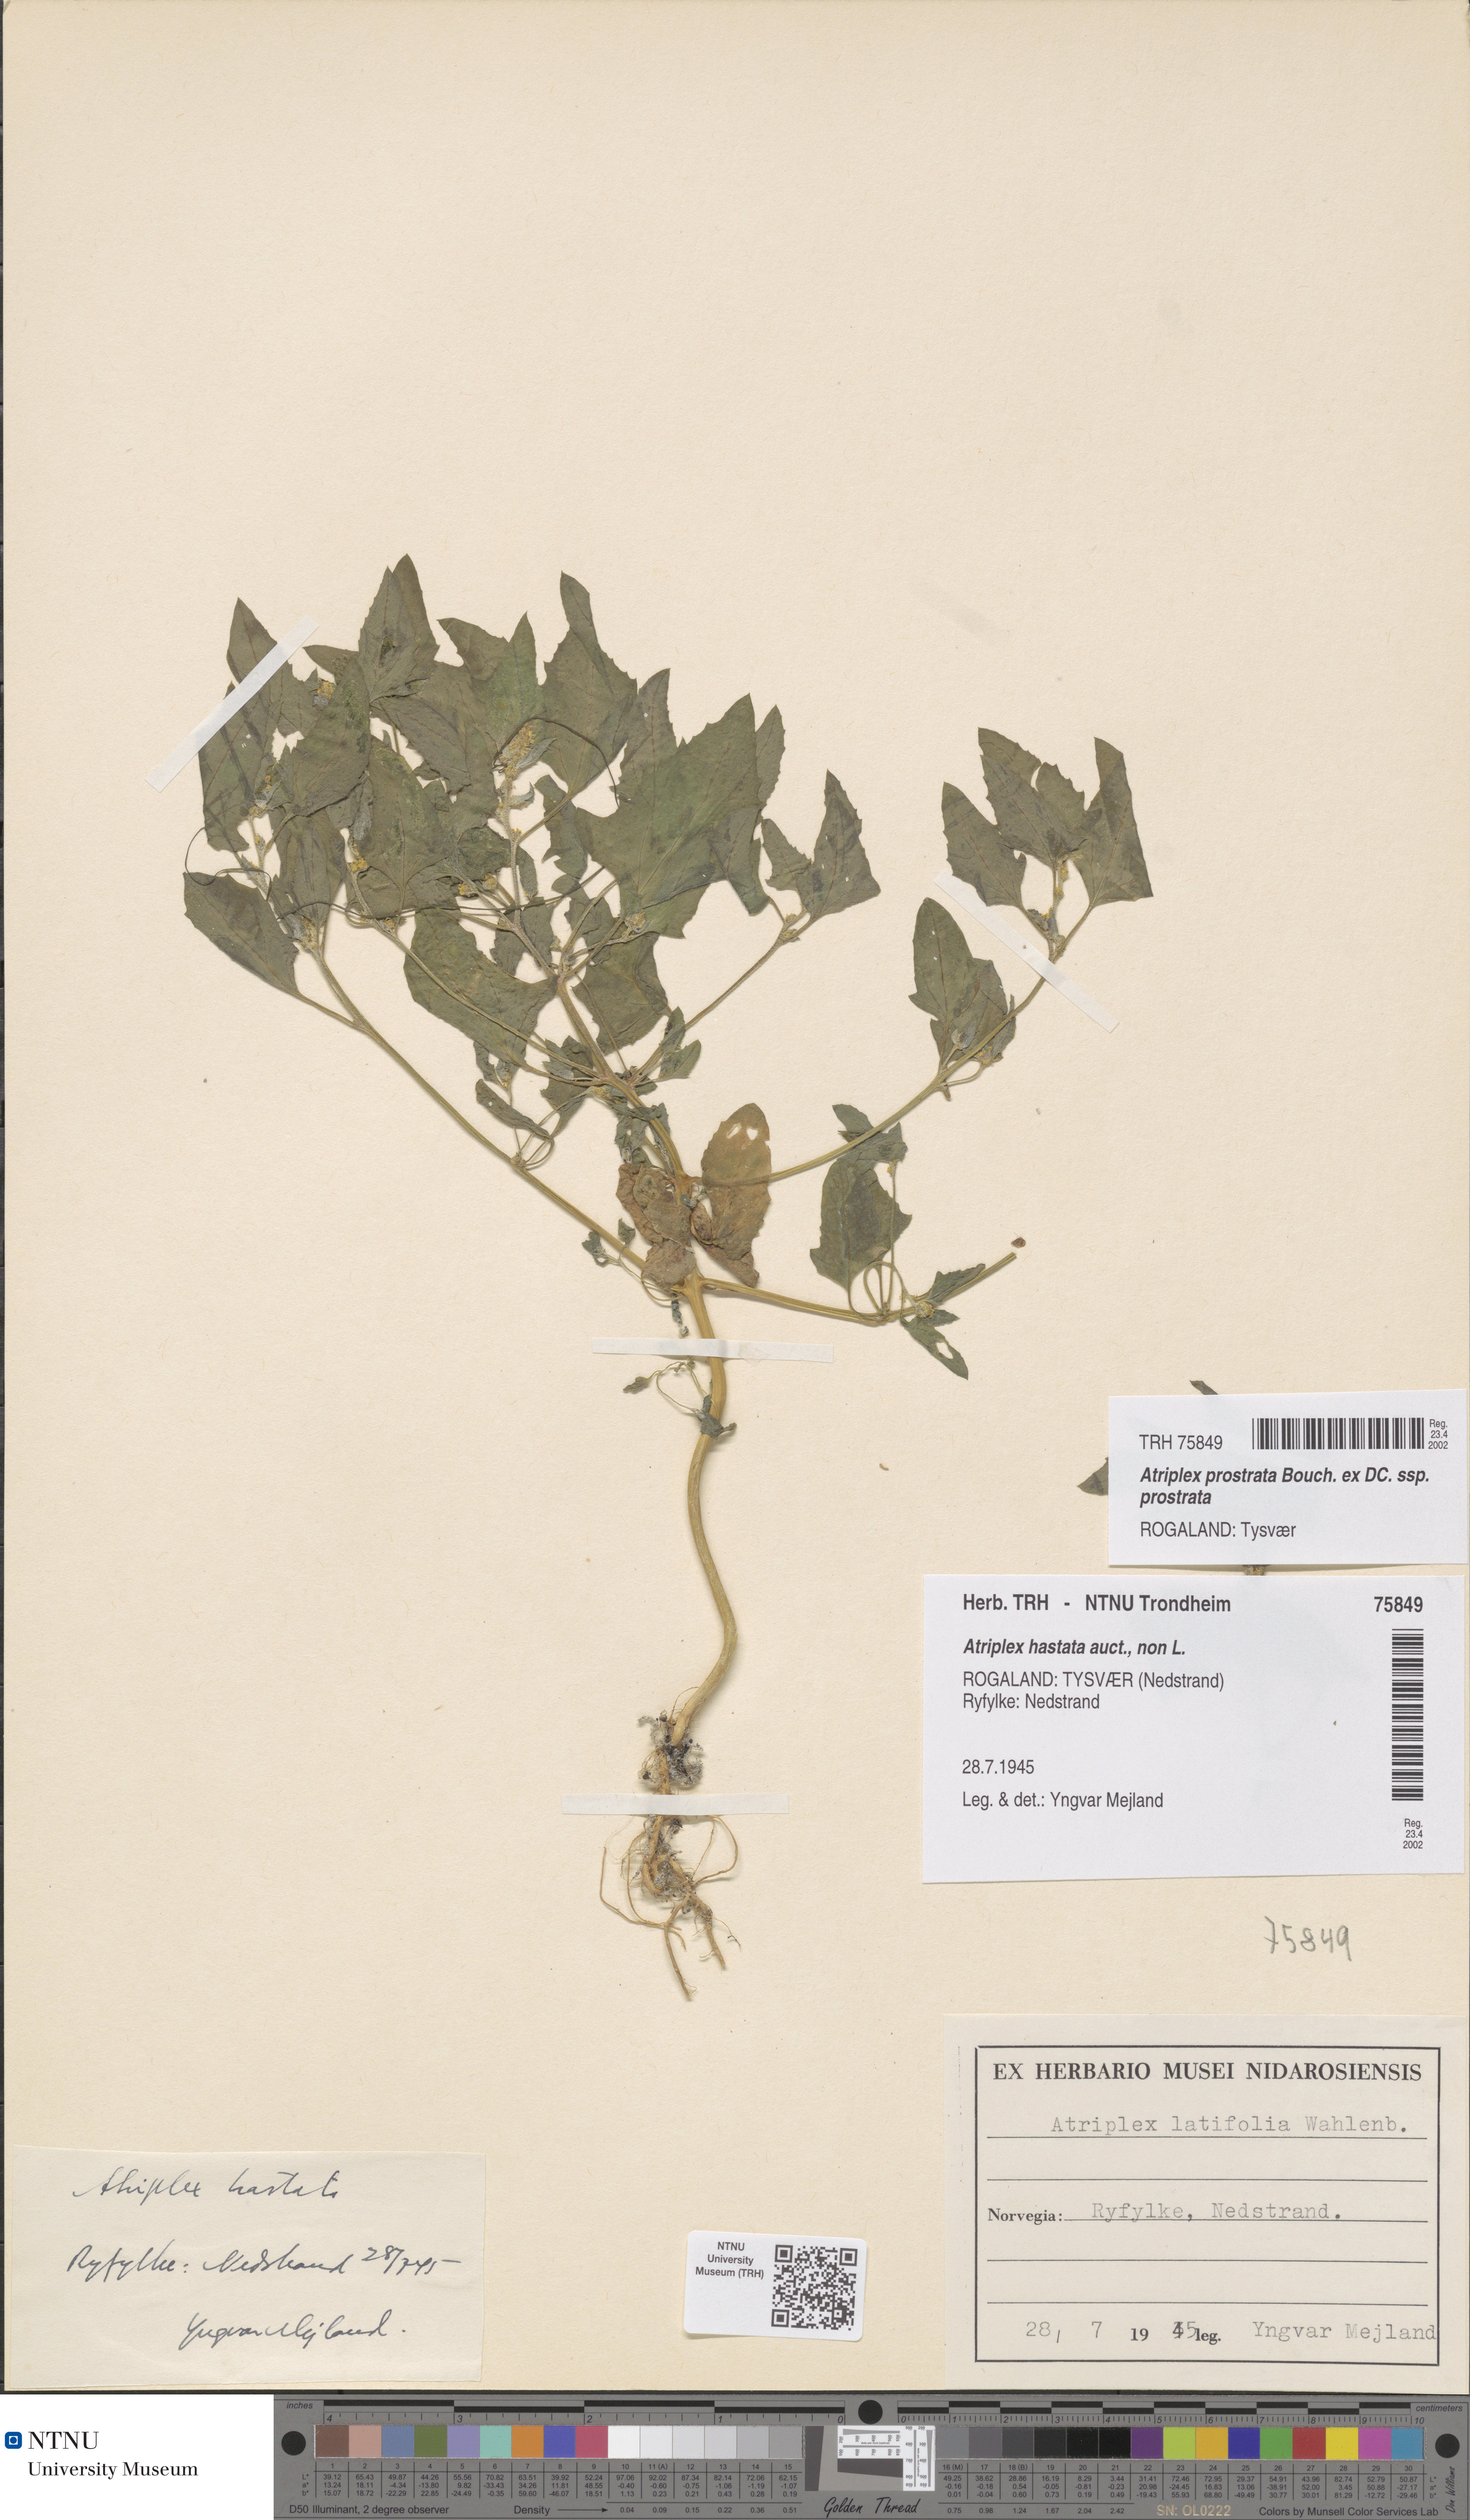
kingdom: Plantae
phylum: Tracheophyta
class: Magnoliopsida
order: Caryophyllales
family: Amaranthaceae
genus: Atriplex
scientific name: Atriplex prostrata
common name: Spear-leaved orache
